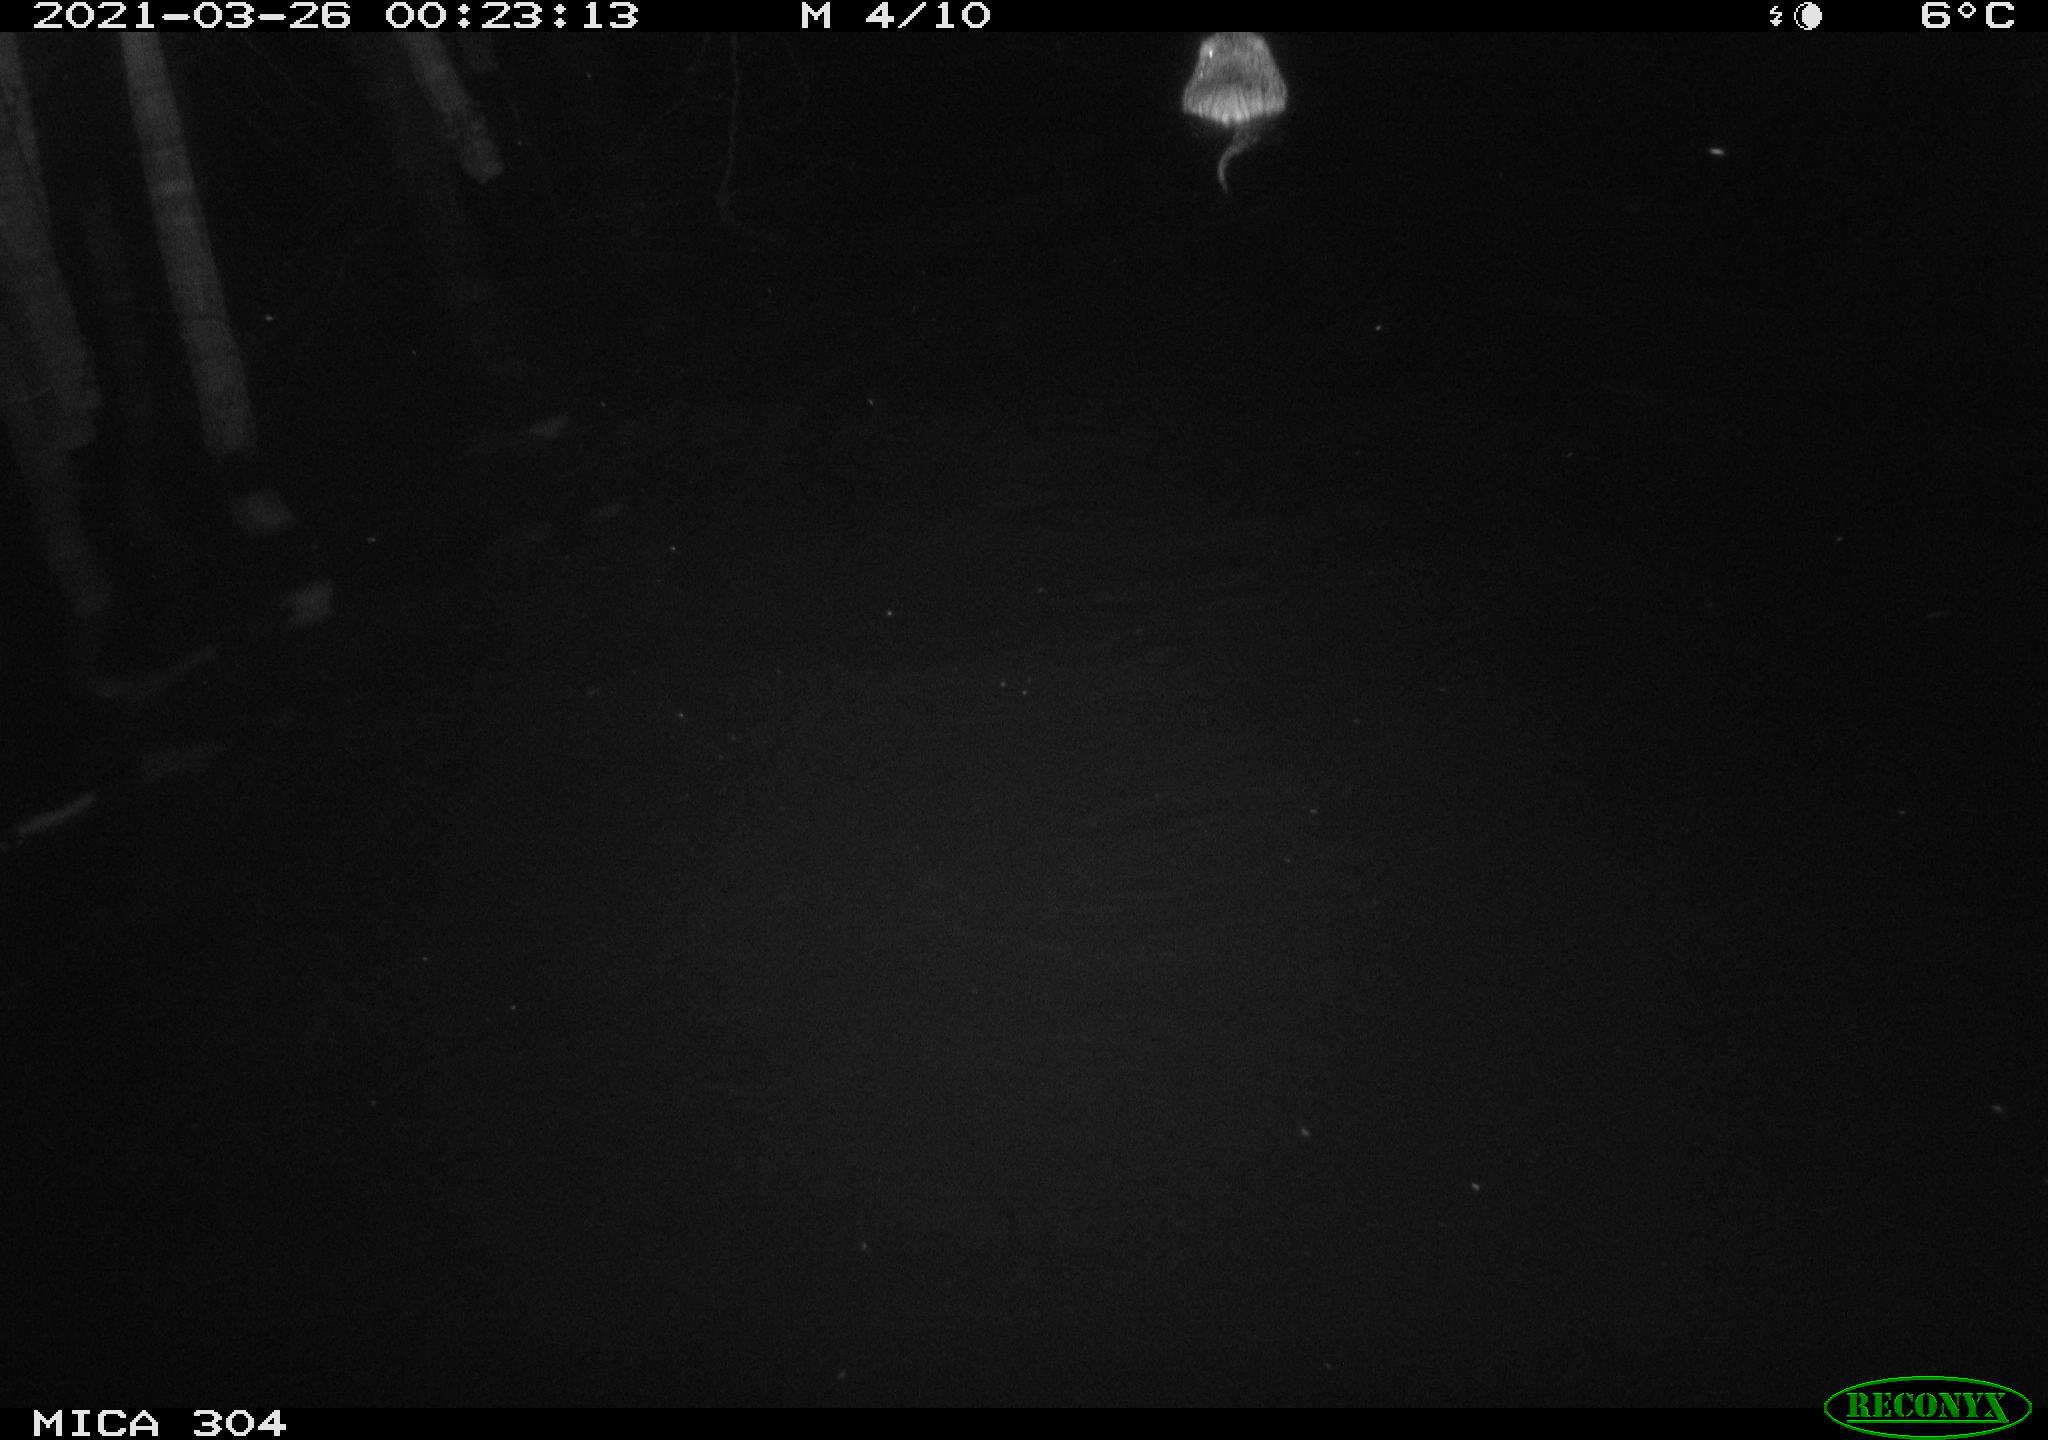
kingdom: Animalia
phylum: Chordata
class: Mammalia
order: Rodentia
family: Cricetidae
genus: Ondatra
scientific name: Ondatra zibethicus
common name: Muskrat
